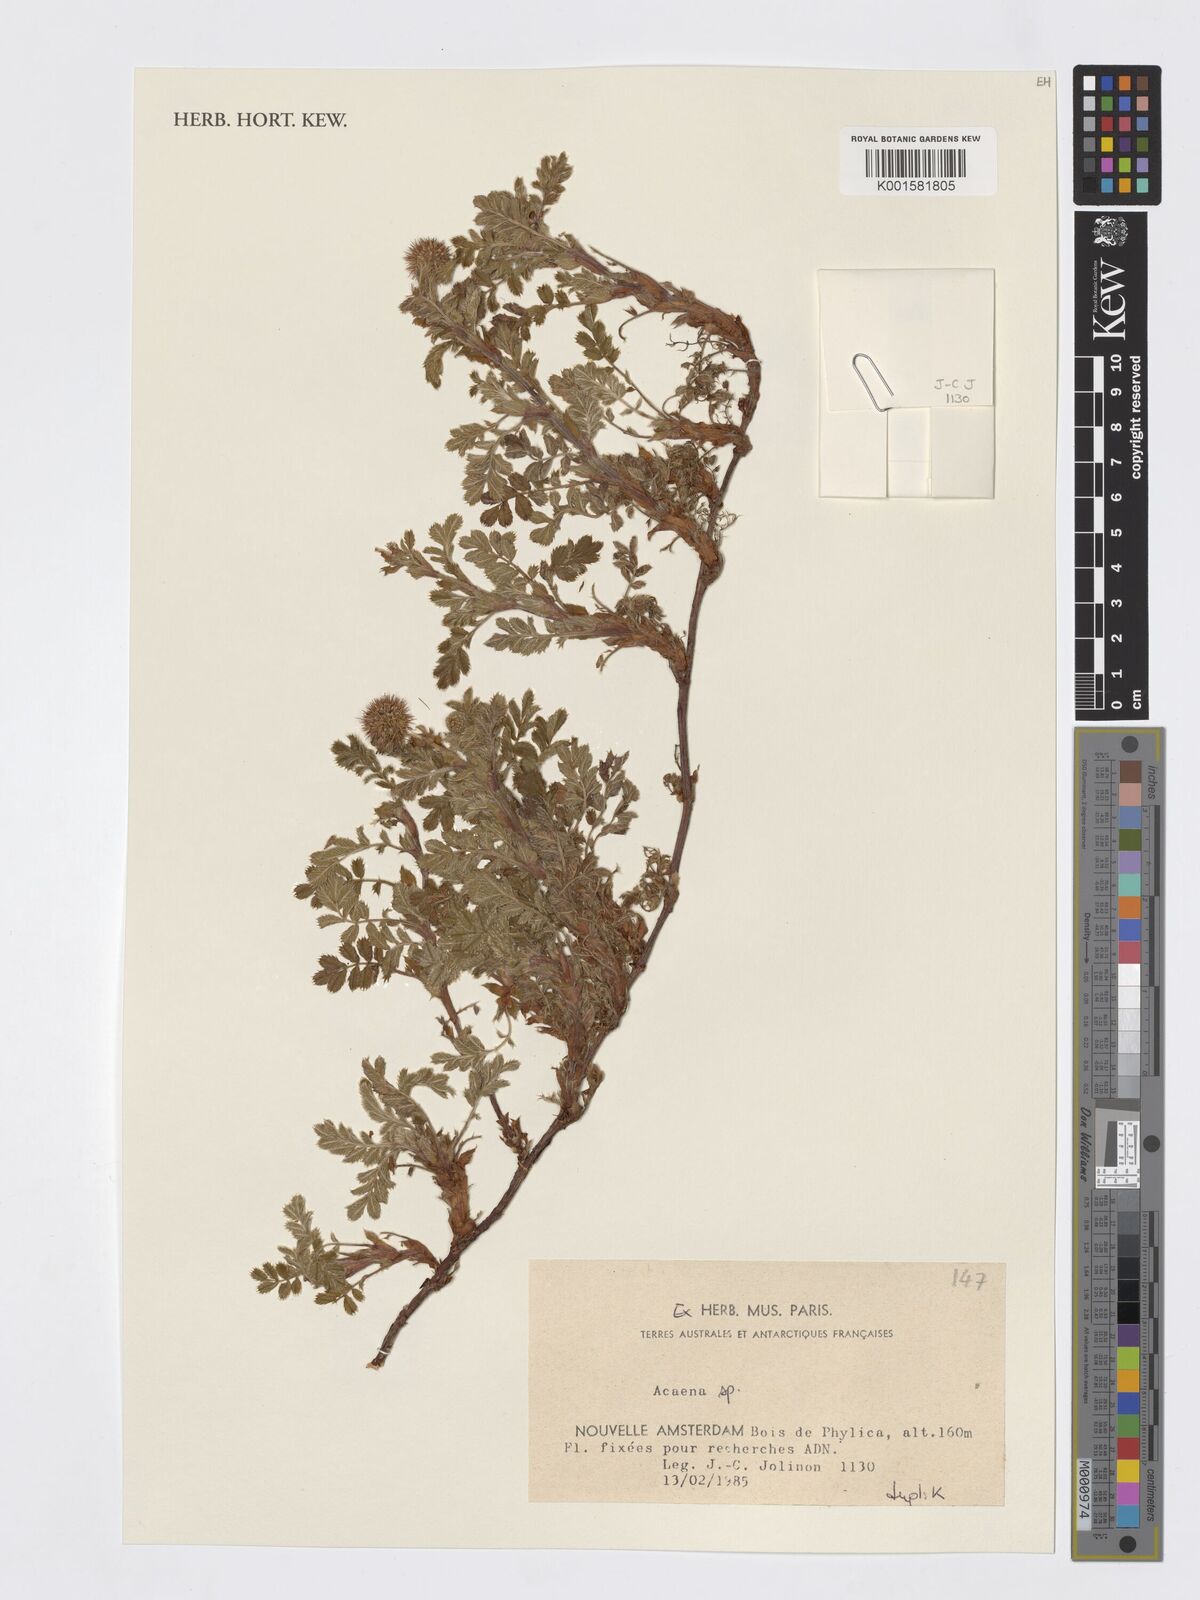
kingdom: Plantae
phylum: Tracheophyta
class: Magnoliopsida
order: Rosales
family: Rosaceae
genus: Acaena
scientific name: Acaena
